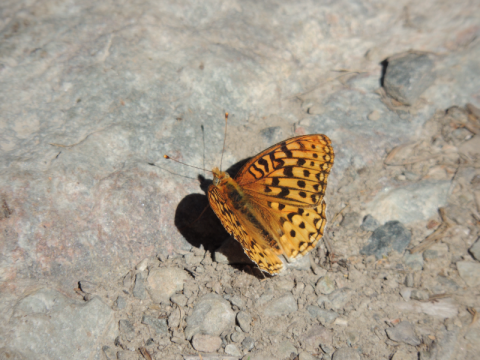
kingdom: Animalia
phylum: Arthropoda
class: Insecta
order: Lepidoptera
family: Nymphalidae
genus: Speyeria
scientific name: Speyeria egleis
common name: Great Basin Fritillary
